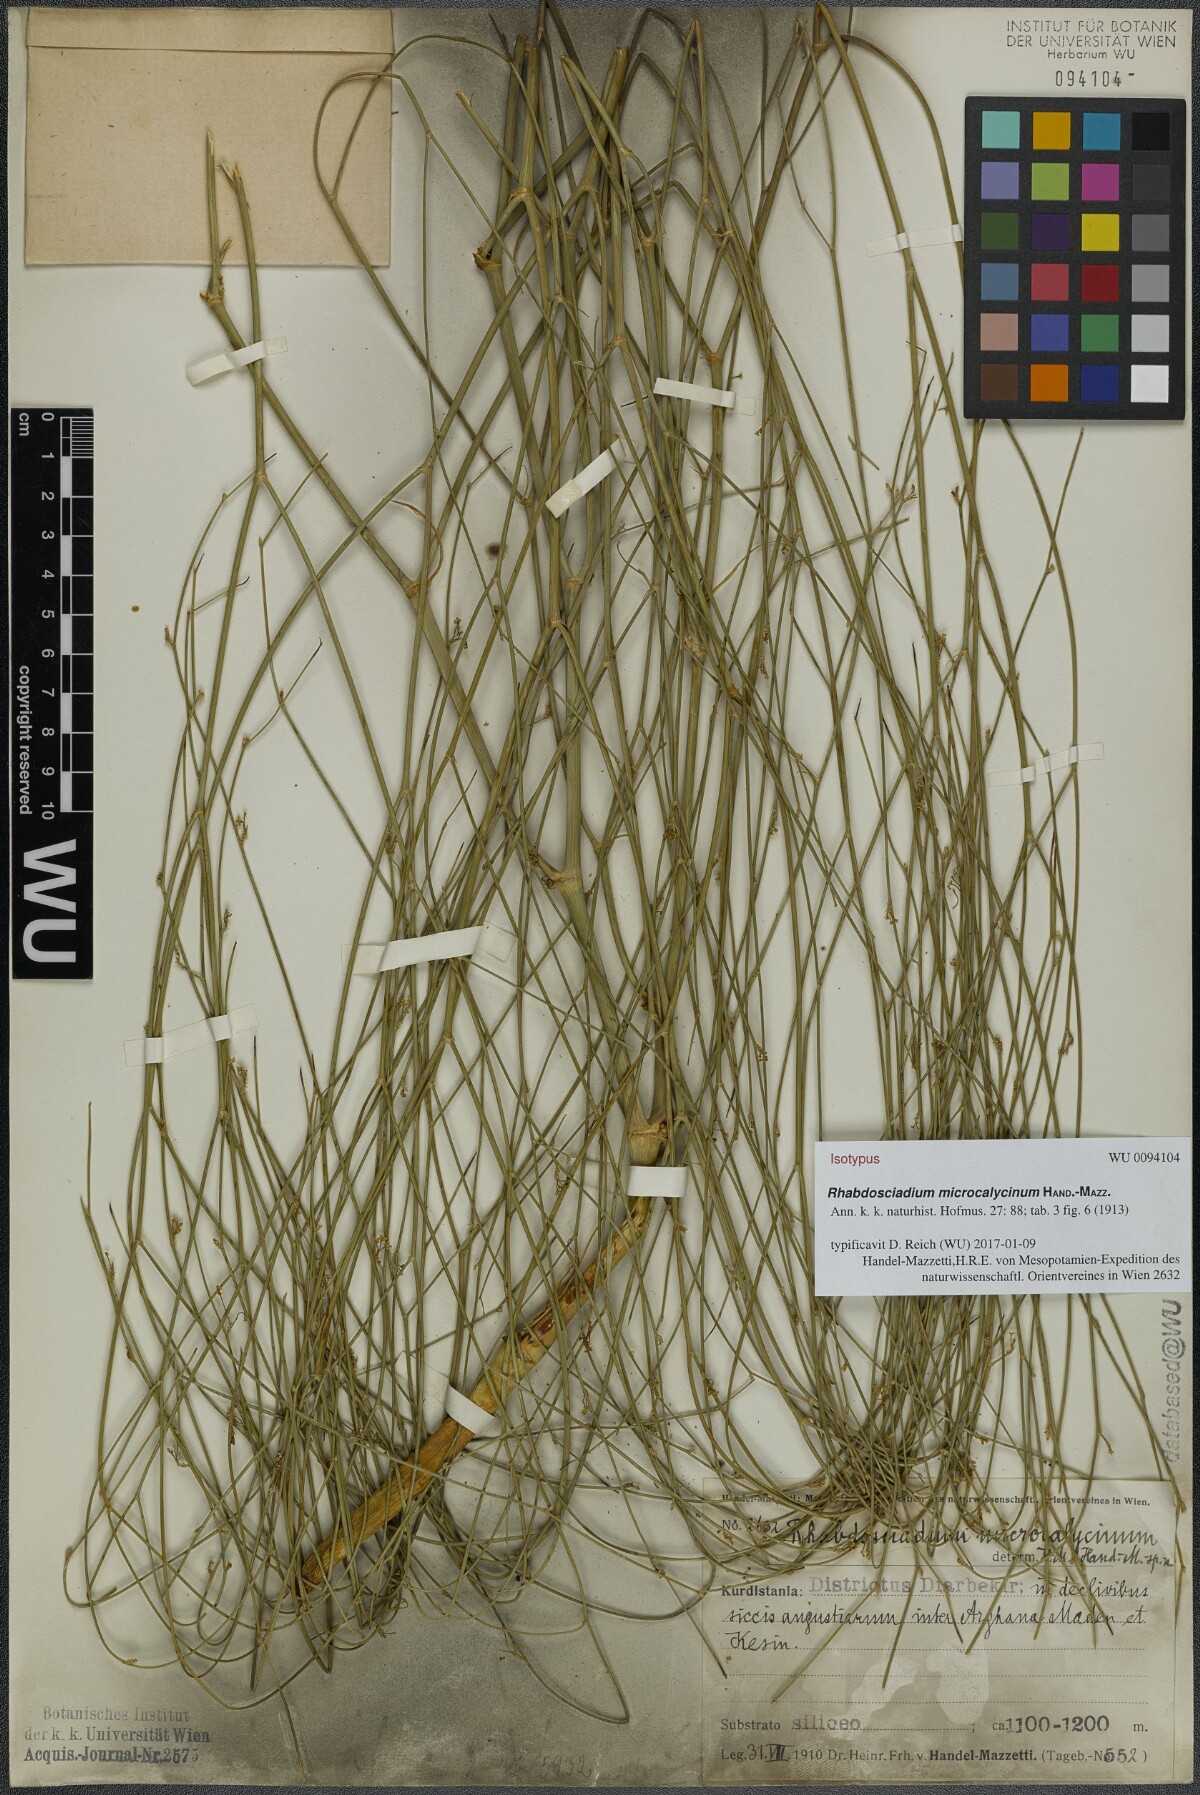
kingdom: Plantae
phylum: Tracheophyta
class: Magnoliopsida
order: Apiales
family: Apiaceae
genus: Rhabdosciadium
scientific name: Rhabdosciadium microcalycinum
